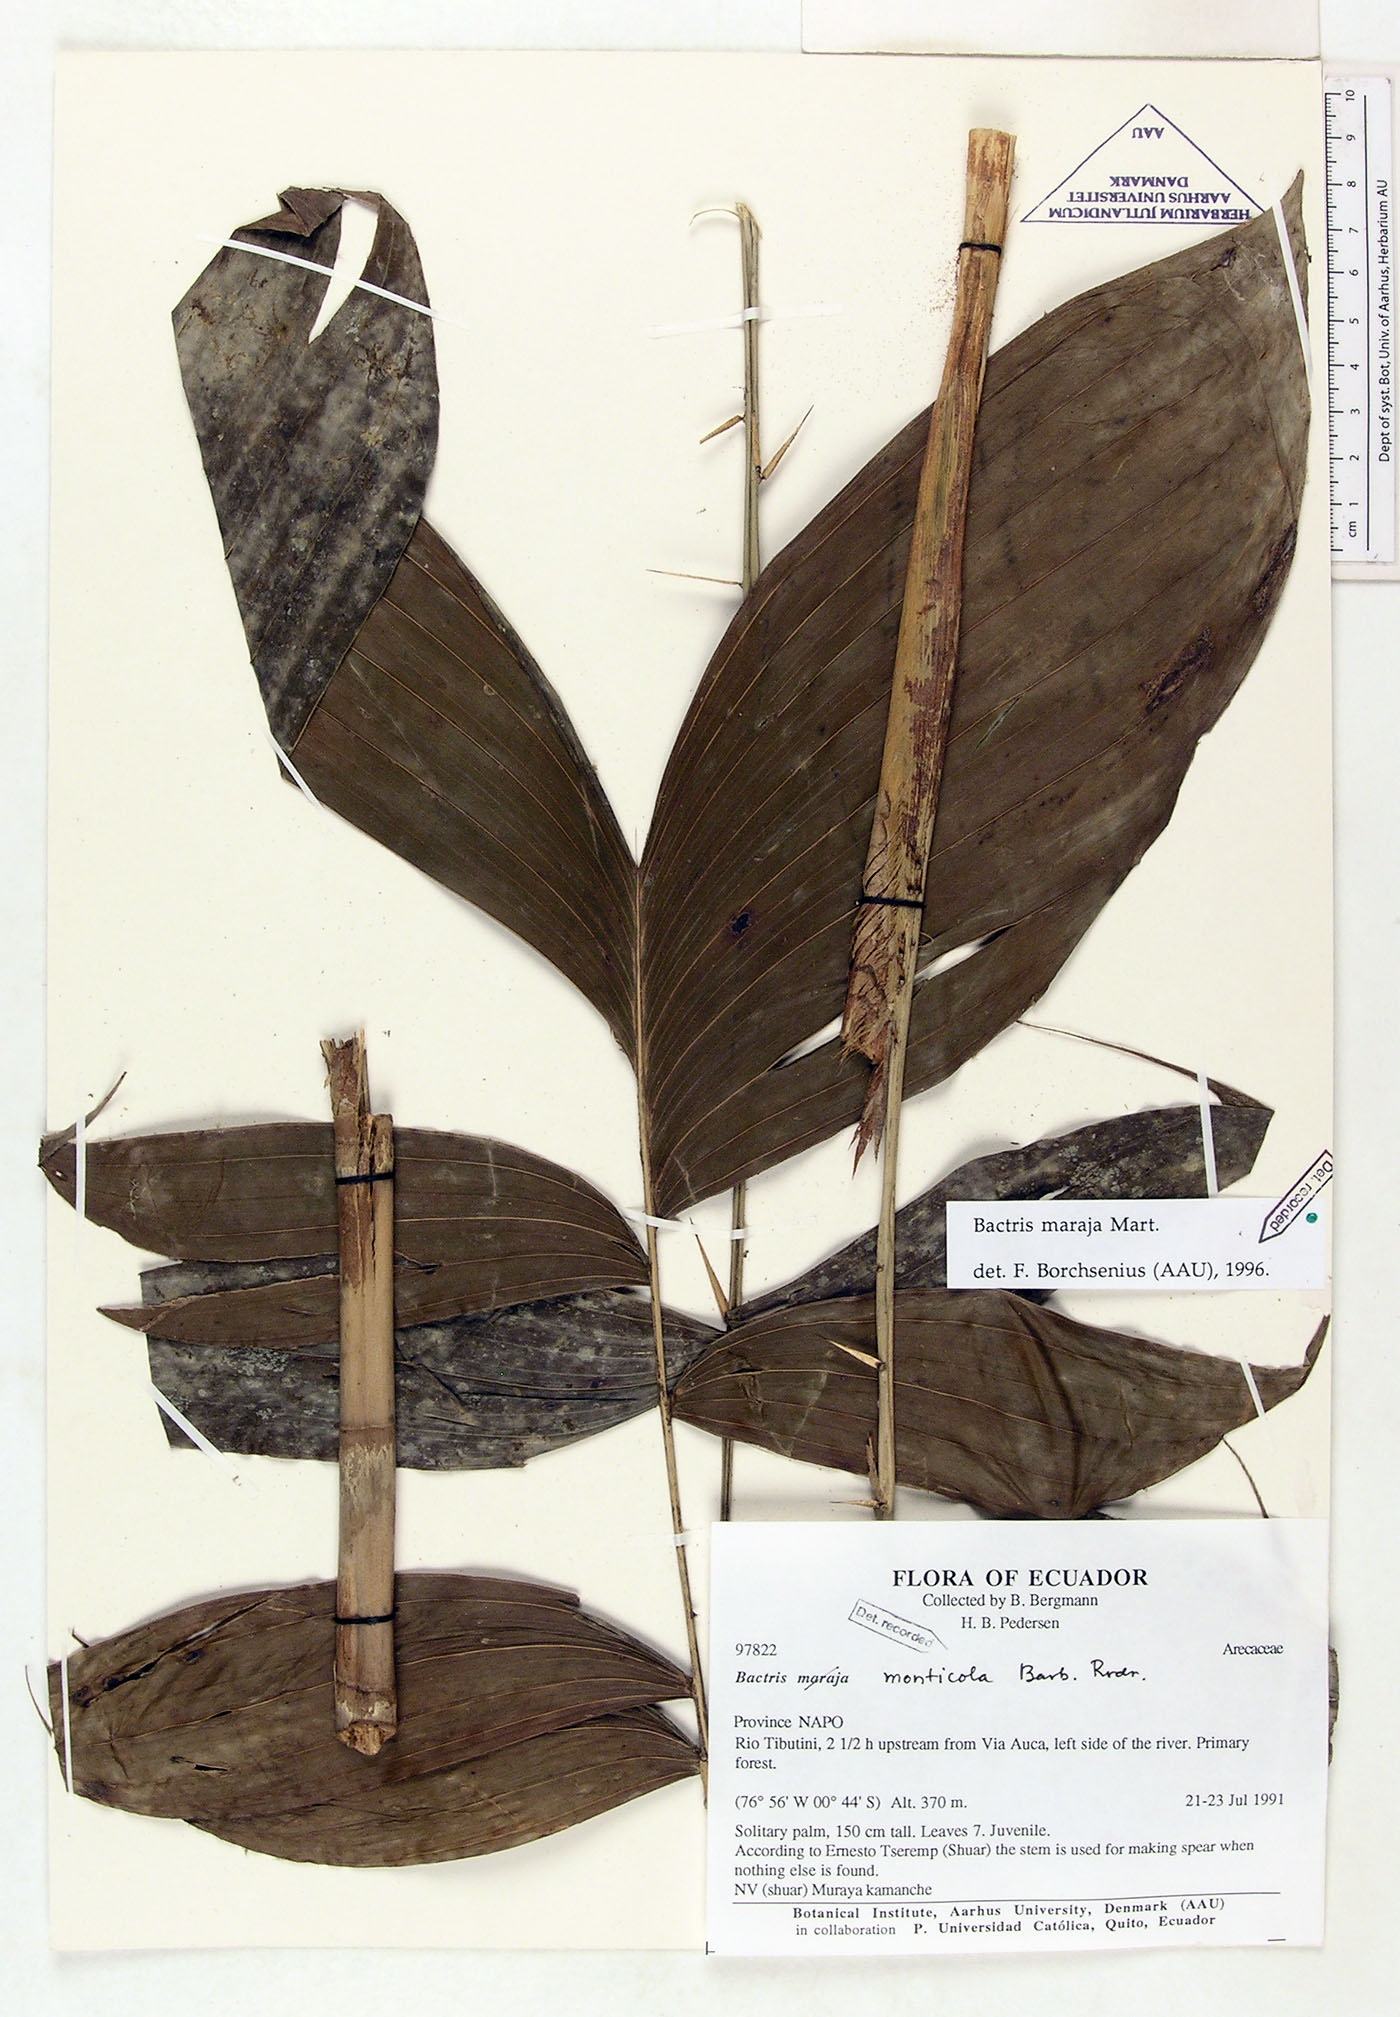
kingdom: Plantae
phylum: Tracheophyta
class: Liliopsida
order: Arecales
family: Arecaceae
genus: Bactris
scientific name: Bactris maraja
